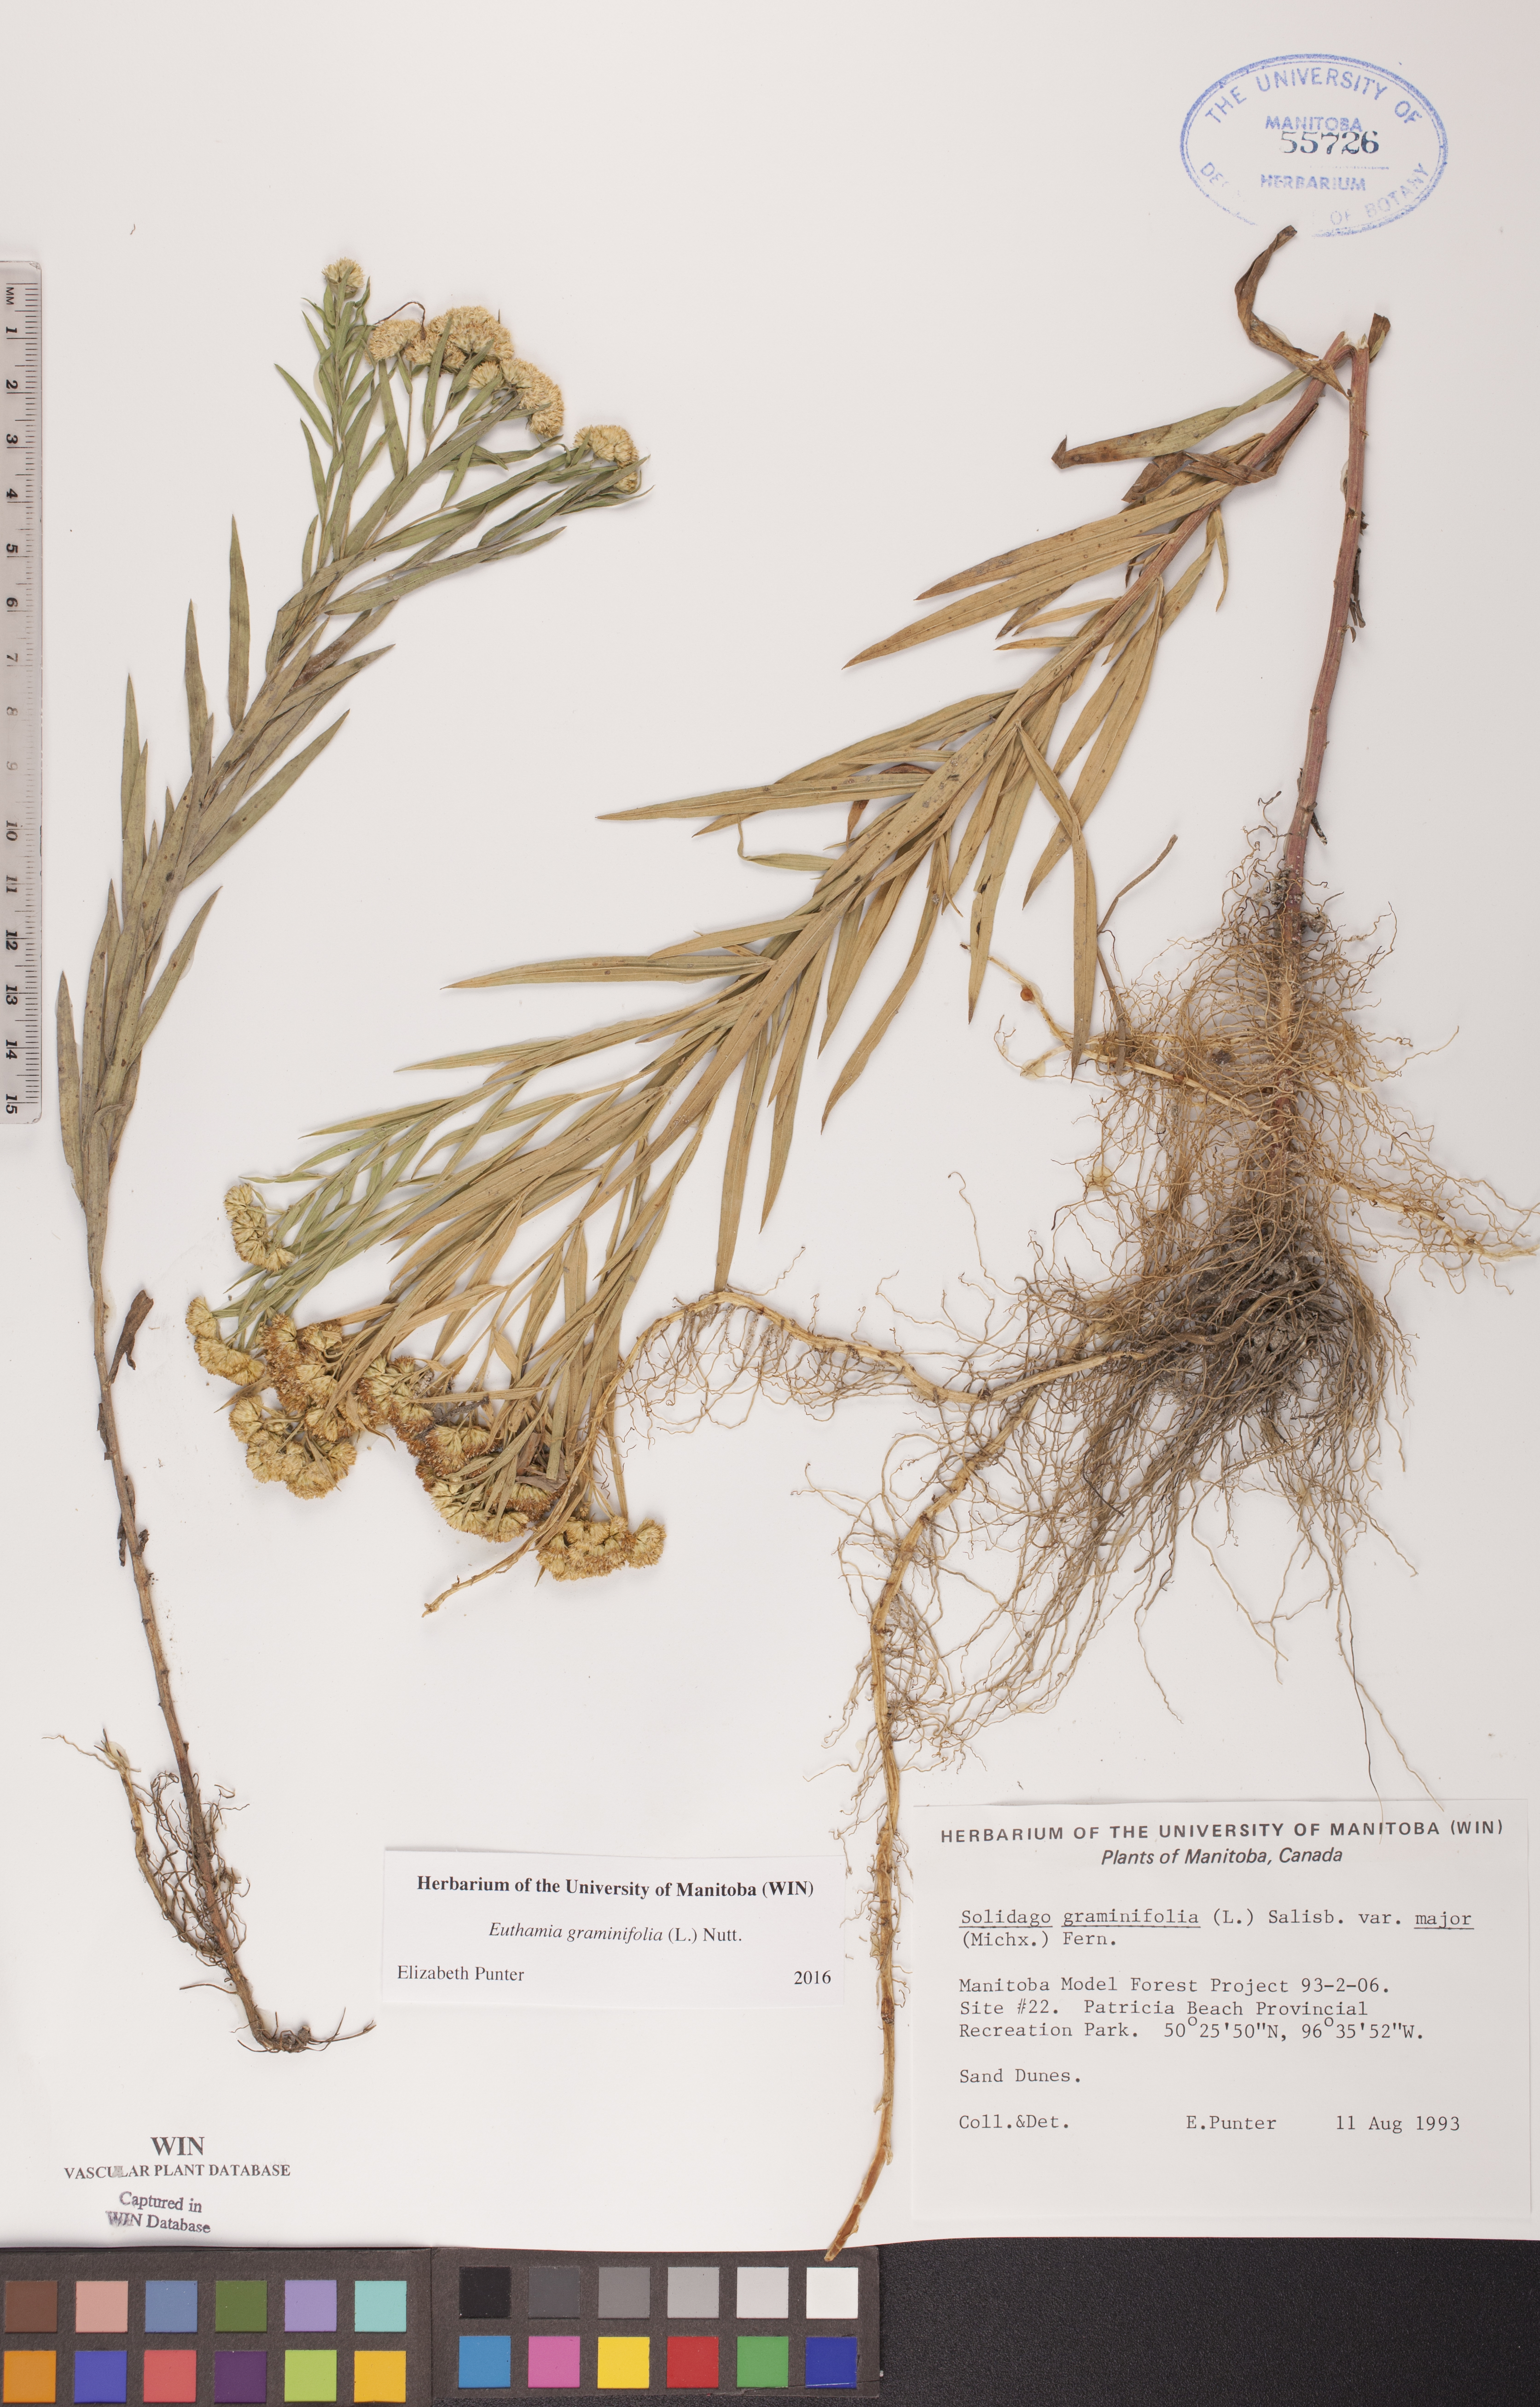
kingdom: Plantae
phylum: Tracheophyta
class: Magnoliopsida
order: Asterales
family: Asteraceae
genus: Euthamia
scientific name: Euthamia graminifolia
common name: Common goldentop
